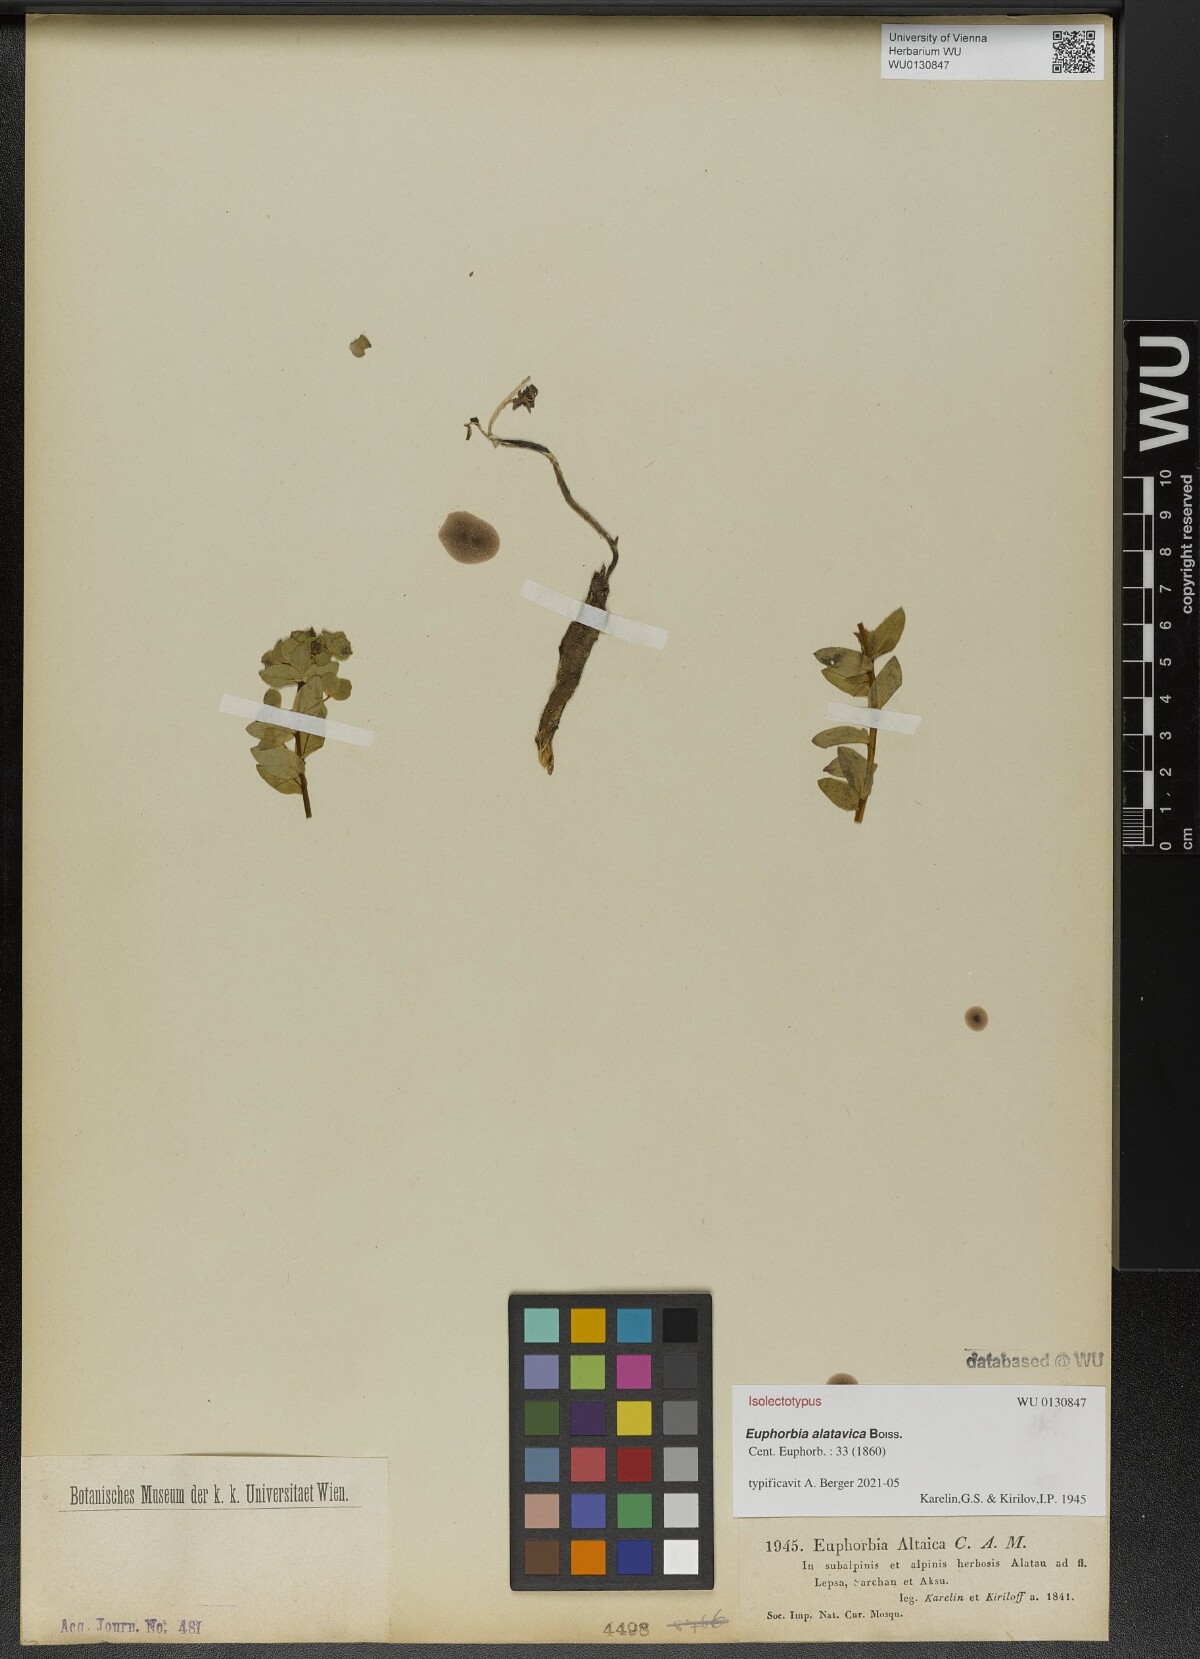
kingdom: Plantae
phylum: Tracheophyta
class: Magnoliopsida
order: Malpighiales
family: Euphorbiaceae
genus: Euphorbia
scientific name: Euphorbia alatavica
